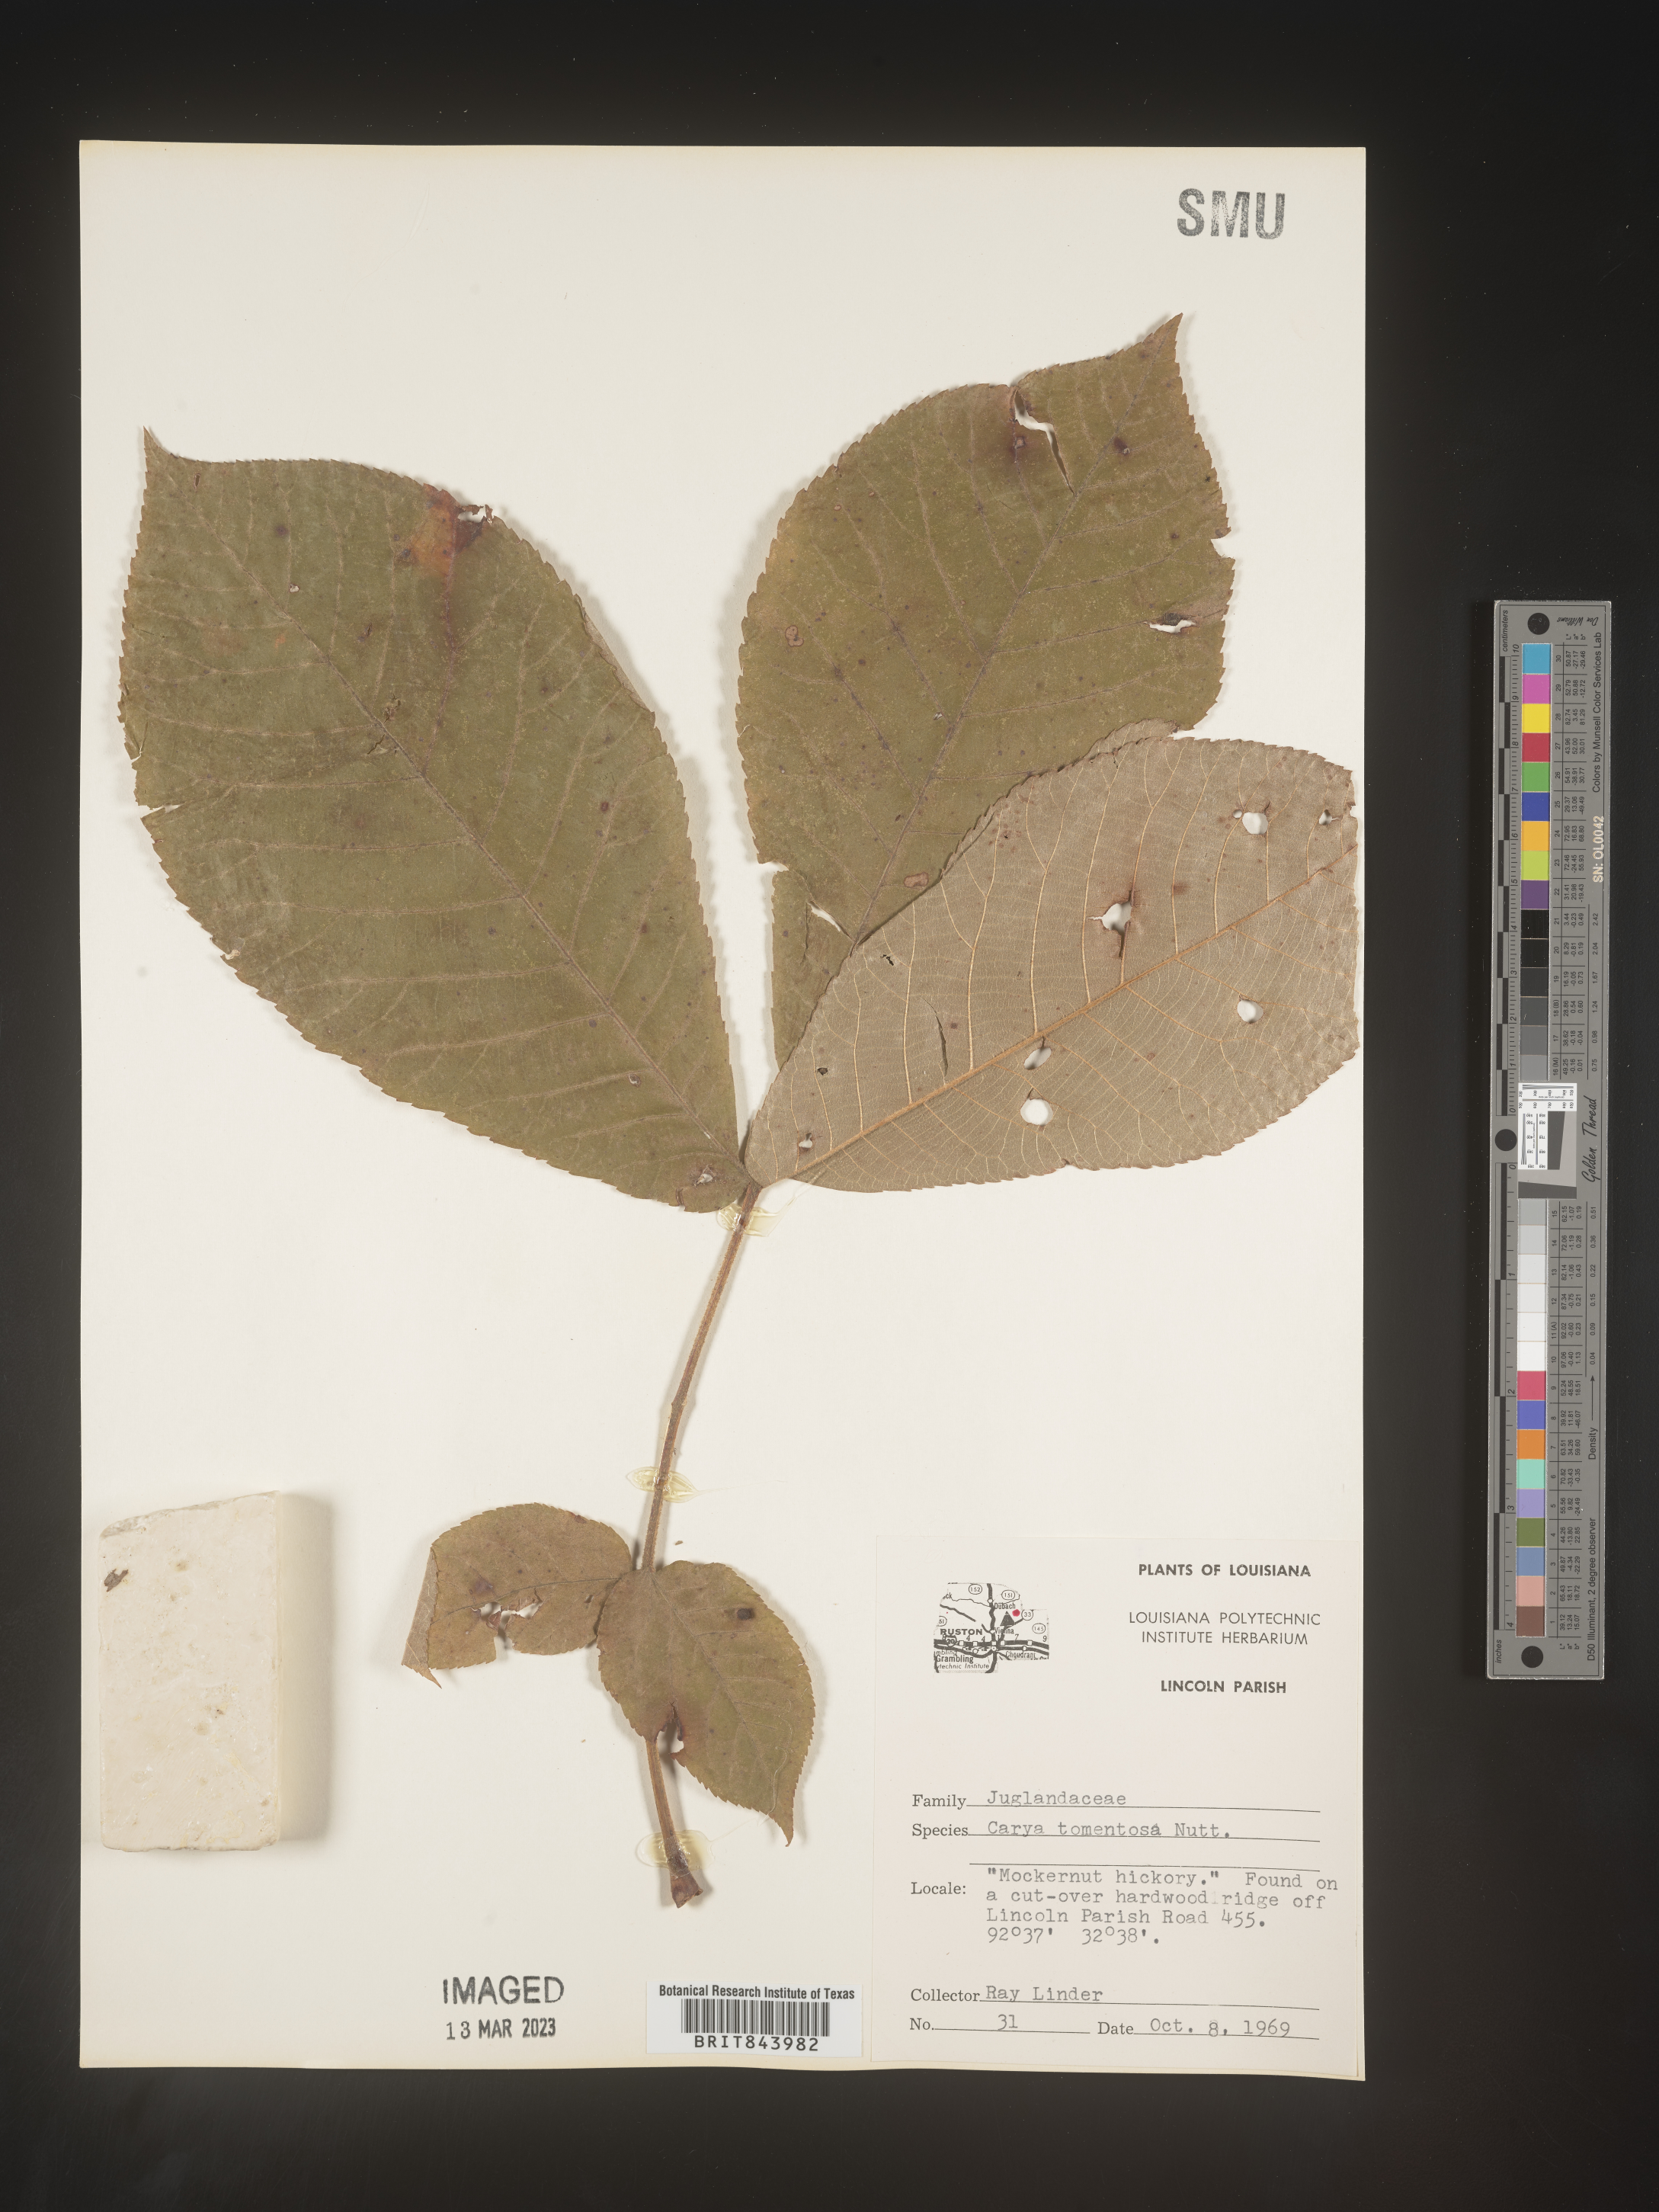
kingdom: Plantae
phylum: Tracheophyta
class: Magnoliopsida
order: Fagales
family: Juglandaceae
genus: Carya
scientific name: Carya alba
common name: Mockernut hickory
